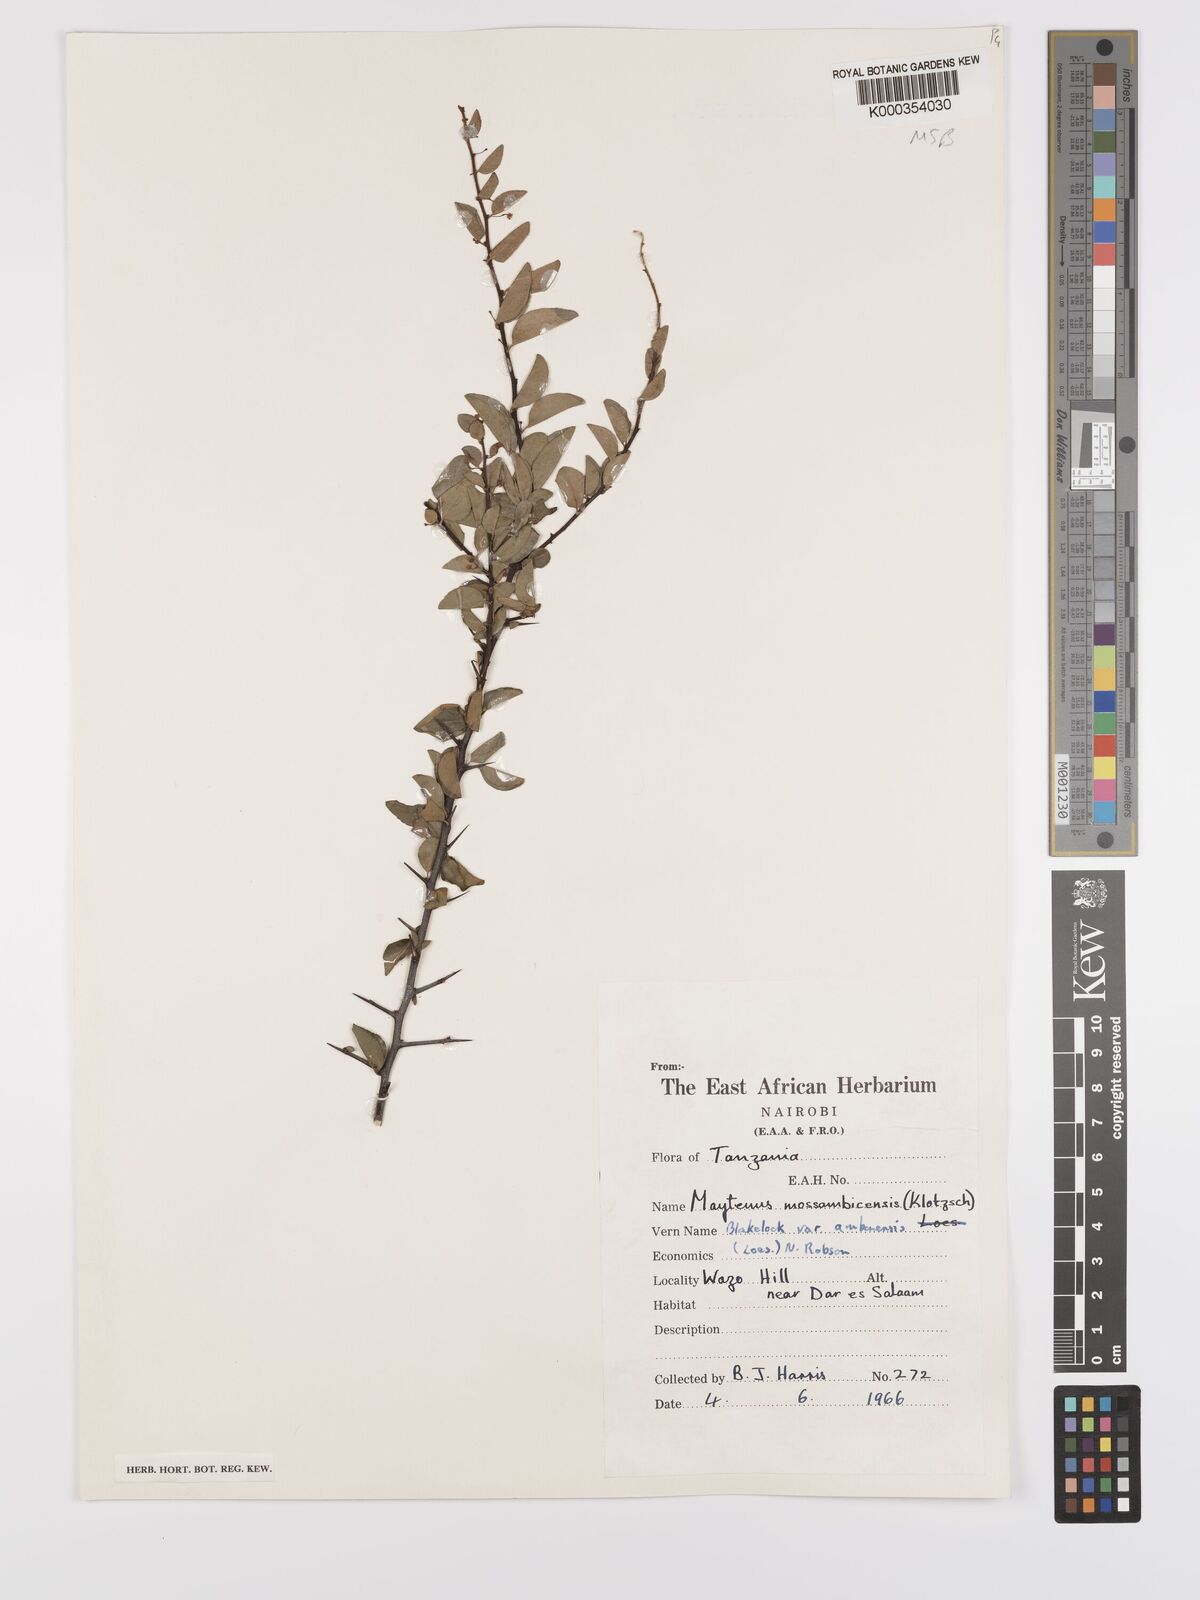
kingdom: Plantae
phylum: Tracheophyta
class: Magnoliopsida
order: Celastrales
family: Celastraceae
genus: Gymnosporia
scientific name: Gymnosporia mossambicensis
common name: Black forest spike-thorn
